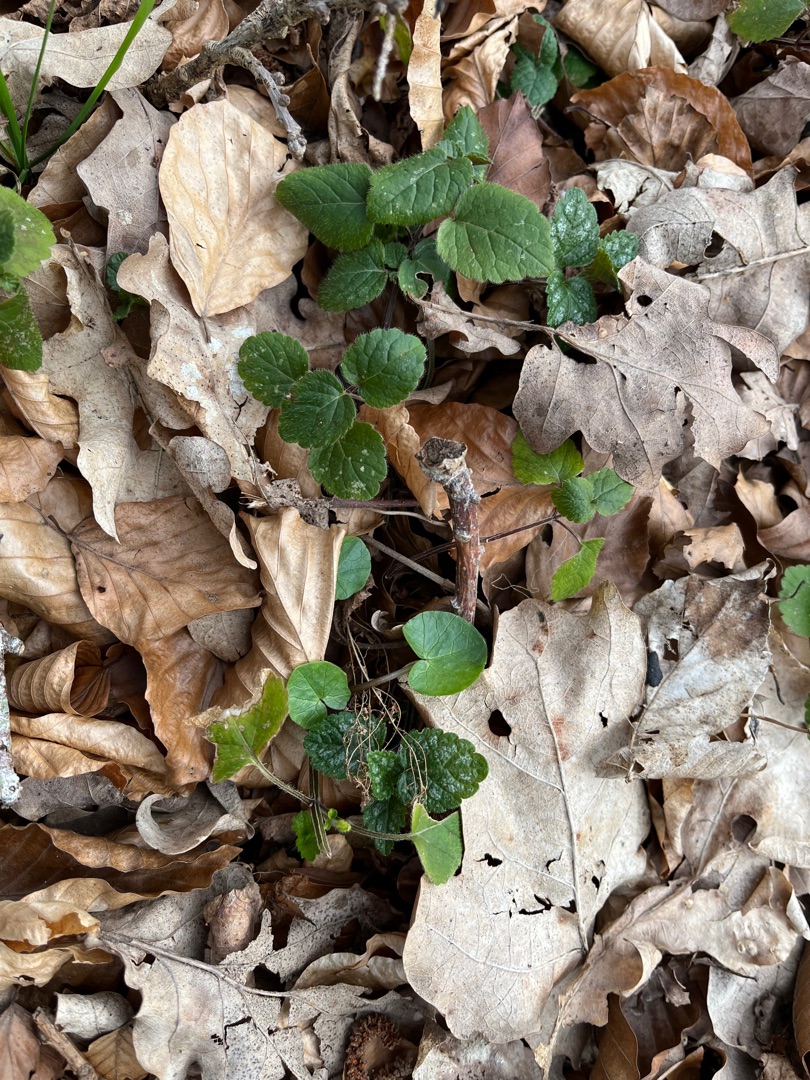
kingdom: Plantae
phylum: Tracheophyta
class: Magnoliopsida
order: Lamiales
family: Lamiaceae
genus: Lamium
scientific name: Lamium galeobdolon
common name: Almindelig guldnælde
